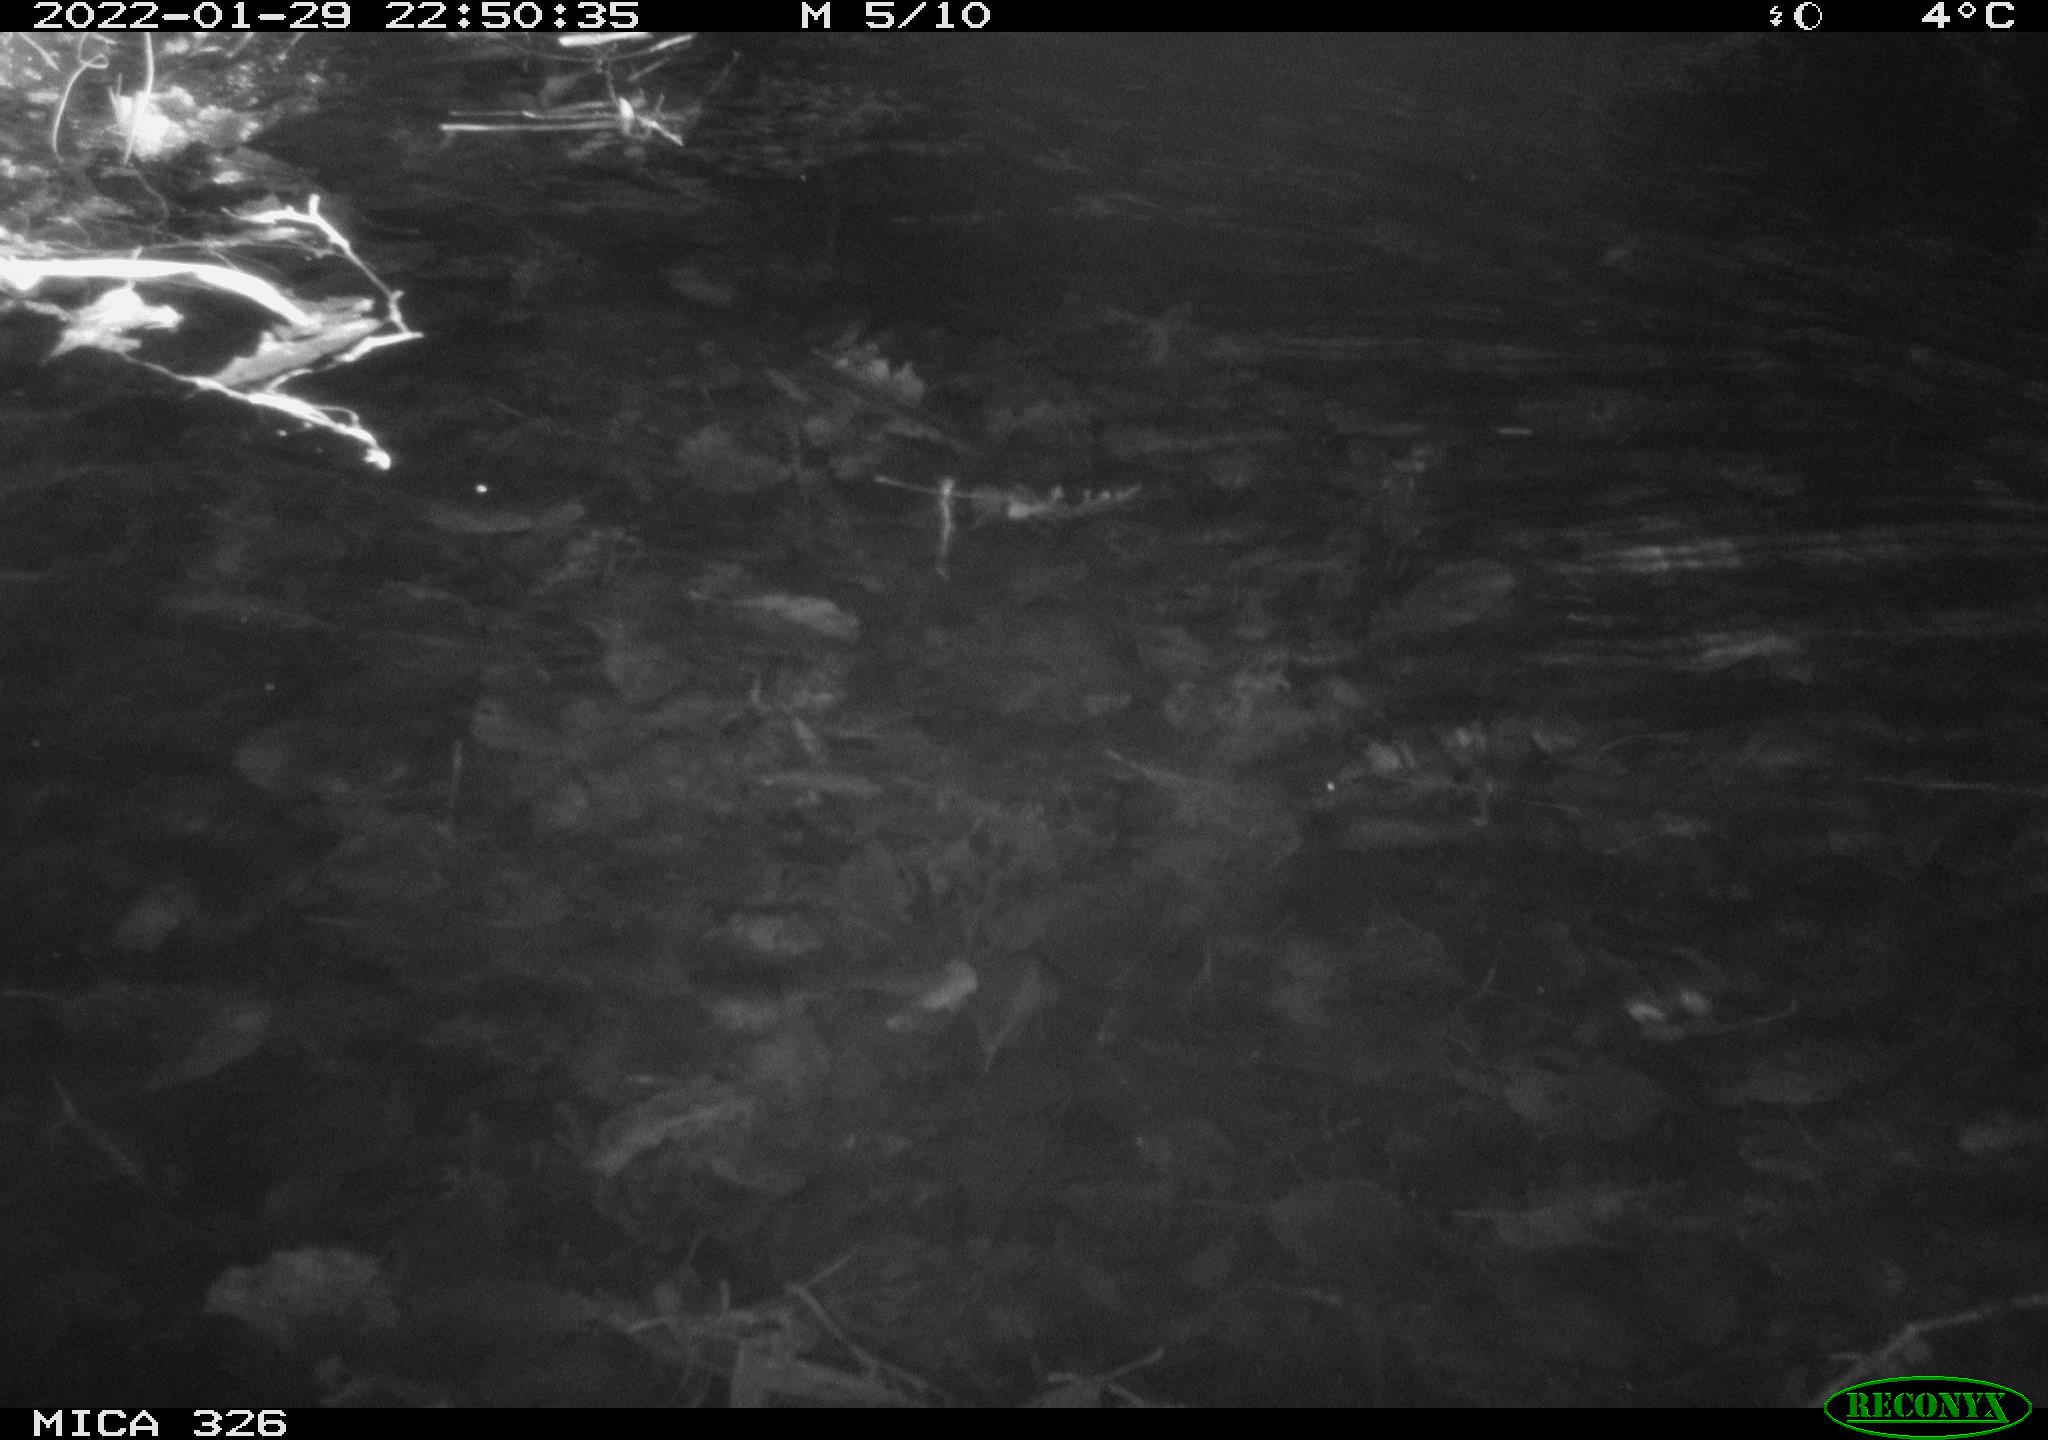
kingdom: Animalia
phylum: Chordata
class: Mammalia
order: Rodentia
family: Cricetidae
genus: Ondatra
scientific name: Ondatra zibethicus
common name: Muskrat
